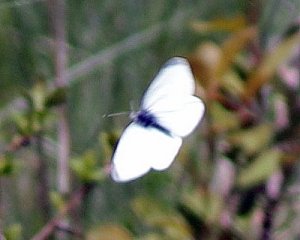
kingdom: Animalia
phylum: Arthropoda
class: Insecta
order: Lepidoptera
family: Pieridae
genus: Pieris
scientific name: Pieris rapae
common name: Cabbage White
